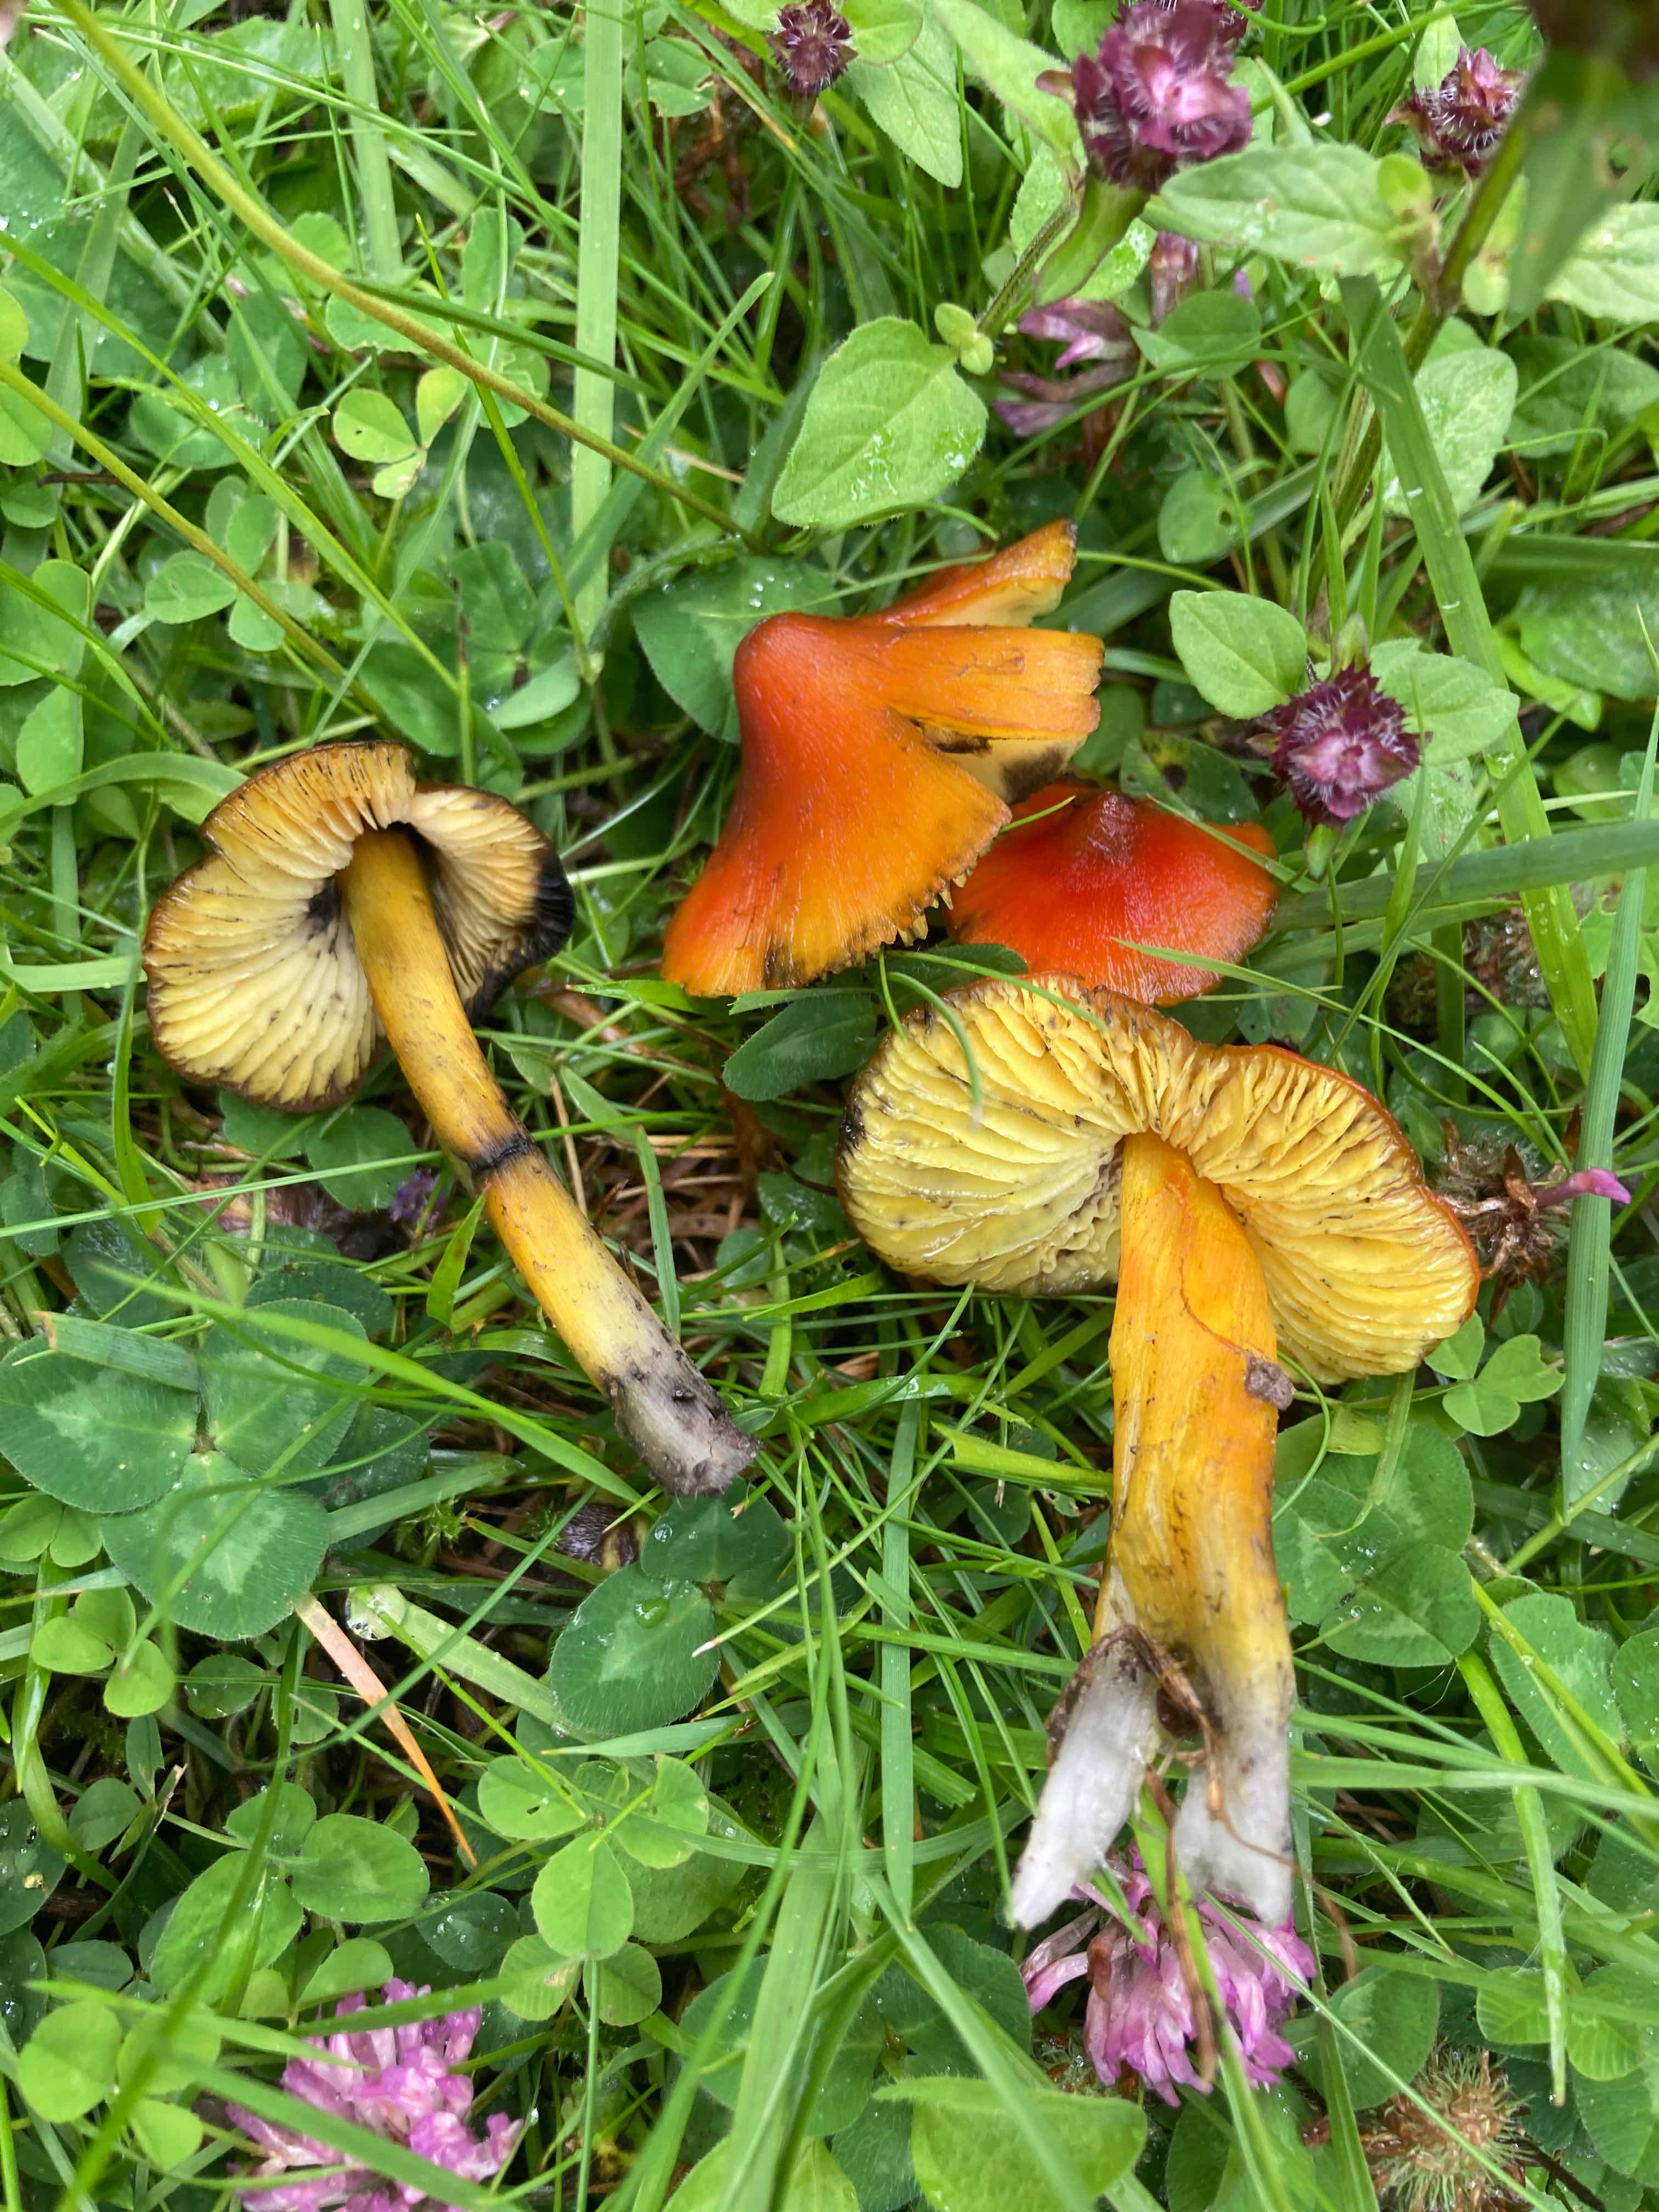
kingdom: Fungi
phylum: Basidiomycota
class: Agaricomycetes
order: Agaricales
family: Hygrophoraceae
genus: Hygrocybe
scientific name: Hygrocybe conica
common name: kegle-vokshat
